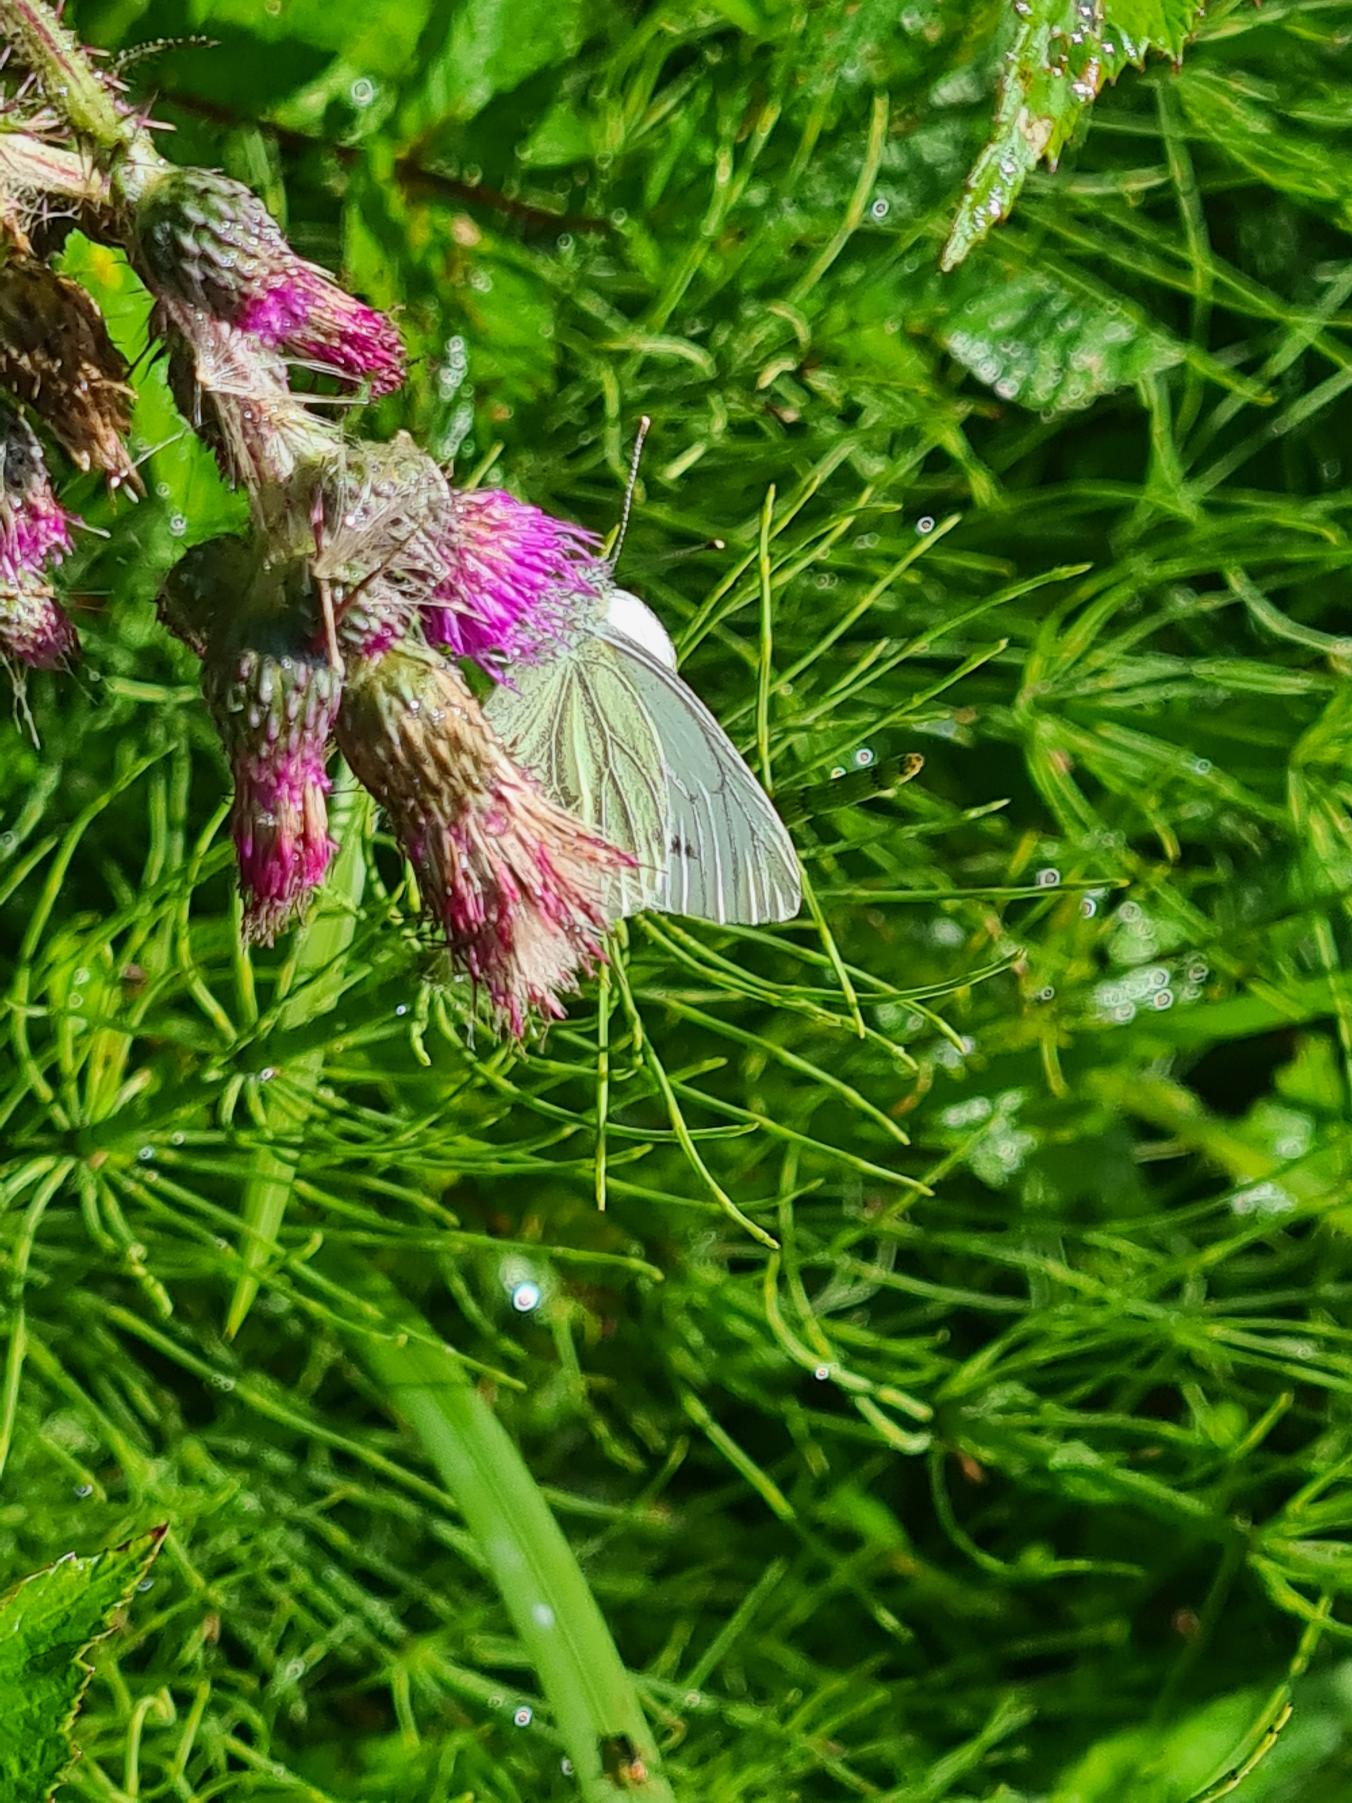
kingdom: Animalia
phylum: Arthropoda
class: Insecta
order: Lepidoptera
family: Pieridae
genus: Pieris
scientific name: Pieris napi
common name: Grønåret kålsommerfugl
